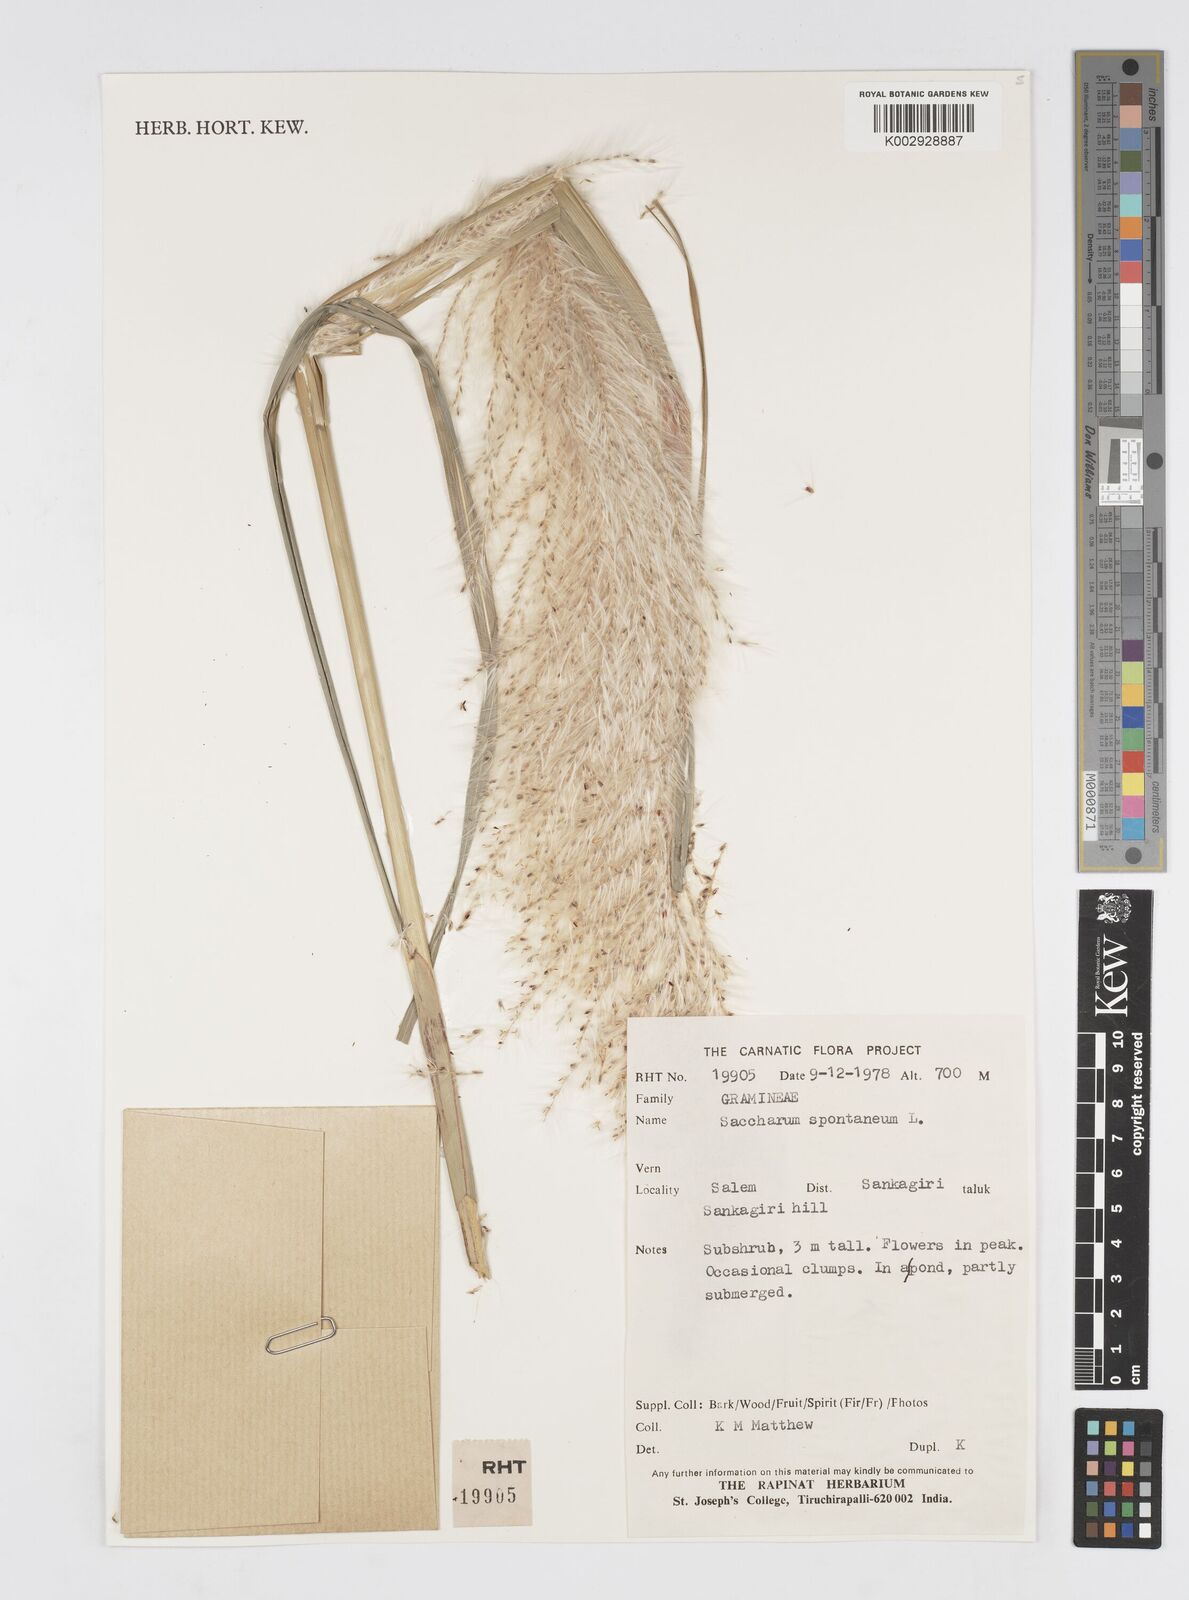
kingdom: Plantae
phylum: Tracheophyta
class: Liliopsida
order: Poales
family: Poaceae
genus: Saccharum
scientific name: Saccharum spontaneum
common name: Wild sugarcane
